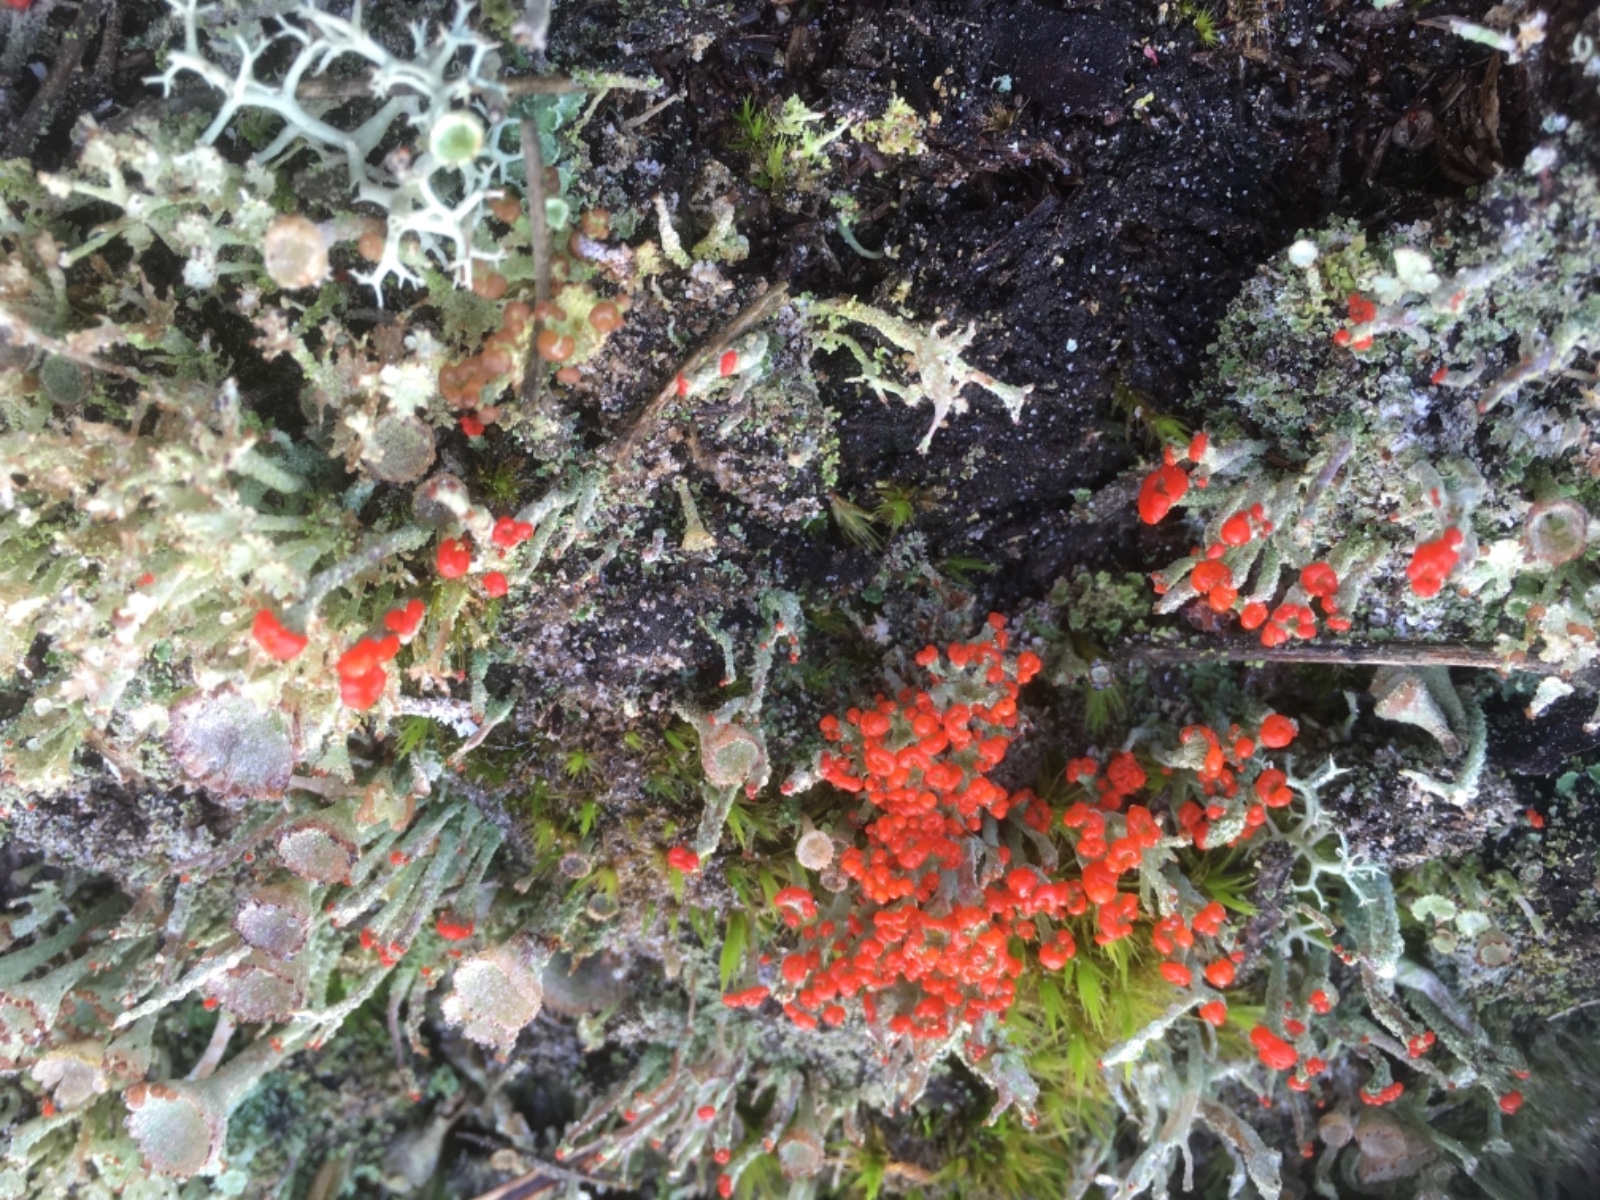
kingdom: Fungi
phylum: Ascomycota
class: Lecanoromycetes
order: Lecanorales
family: Cladoniaceae
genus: Cladonia
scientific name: Cladonia floerkeana
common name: lakrød bægerlav
